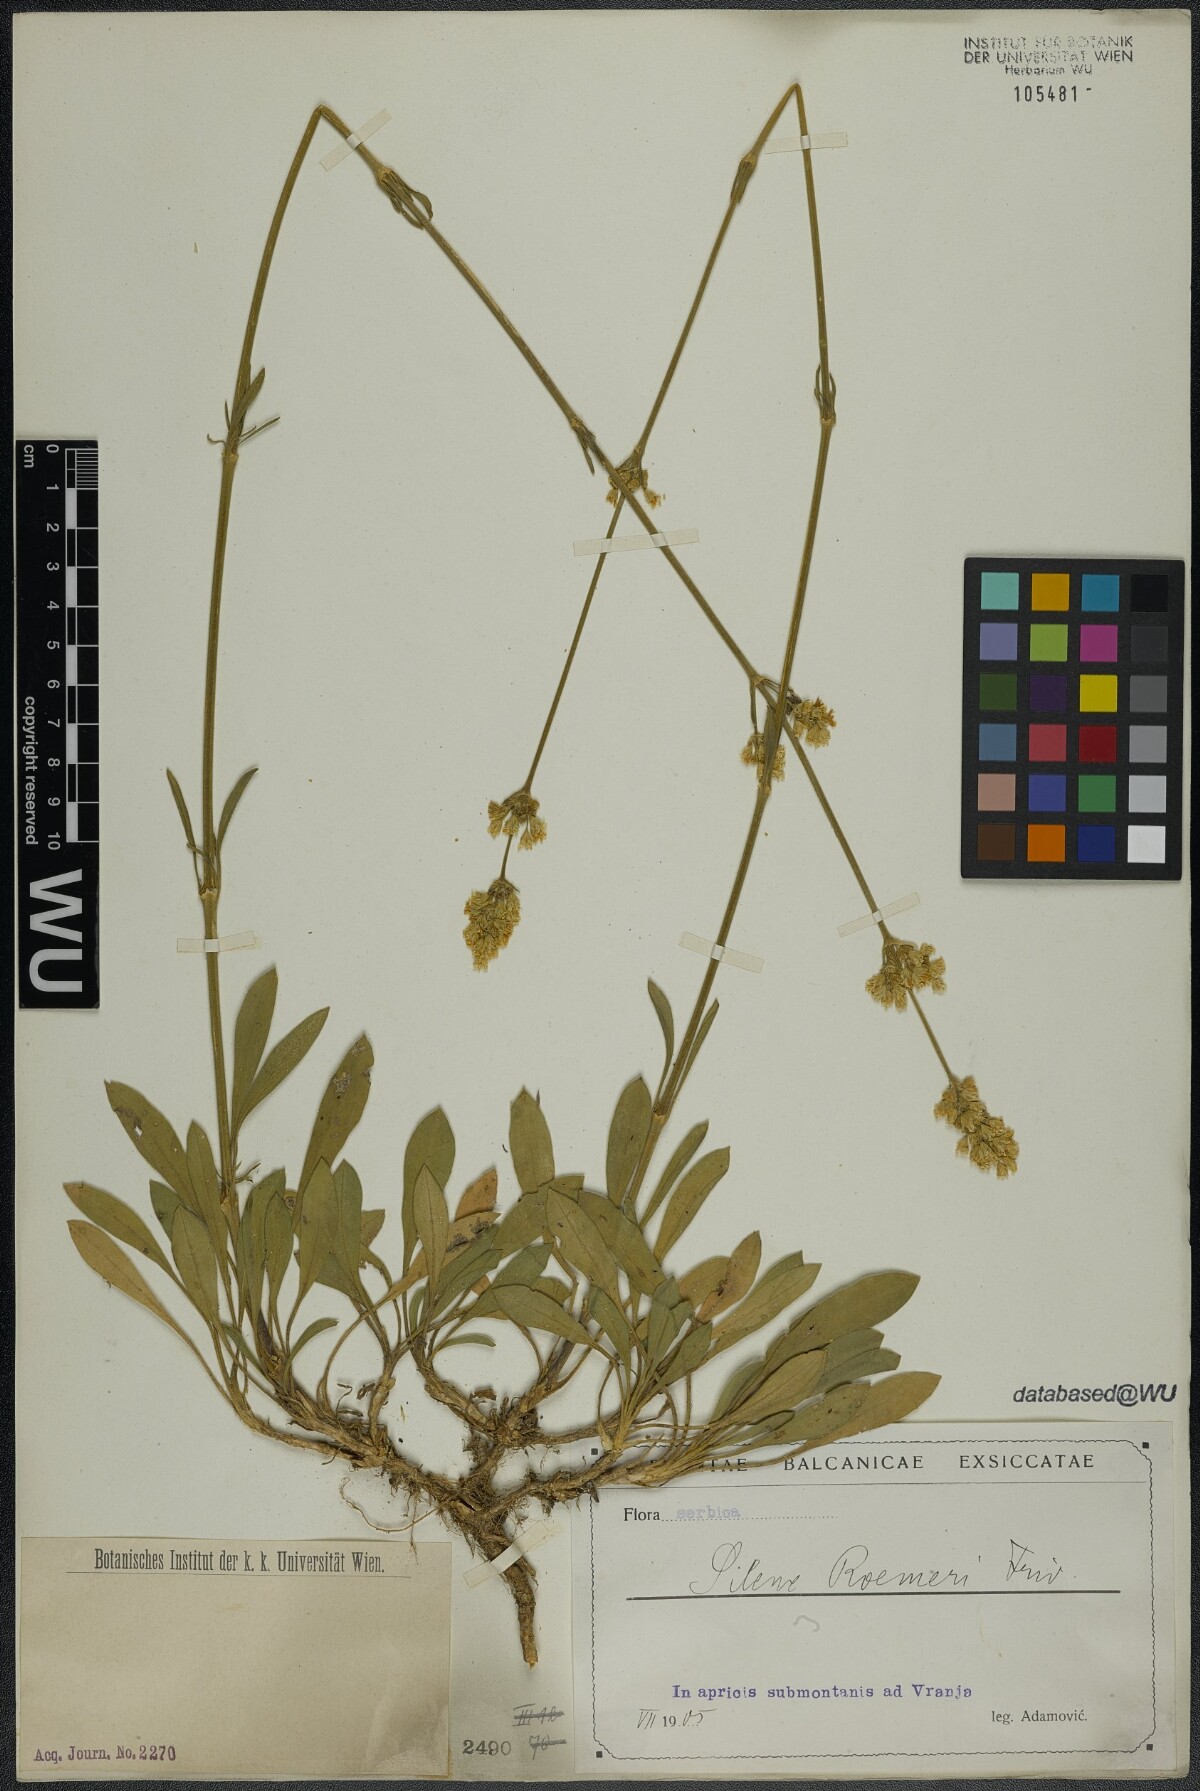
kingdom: Plantae
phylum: Tracheophyta
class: Magnoliopsida
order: Caryophyllales
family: Caryophyllaceae
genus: Silene
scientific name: Silene roemeri
